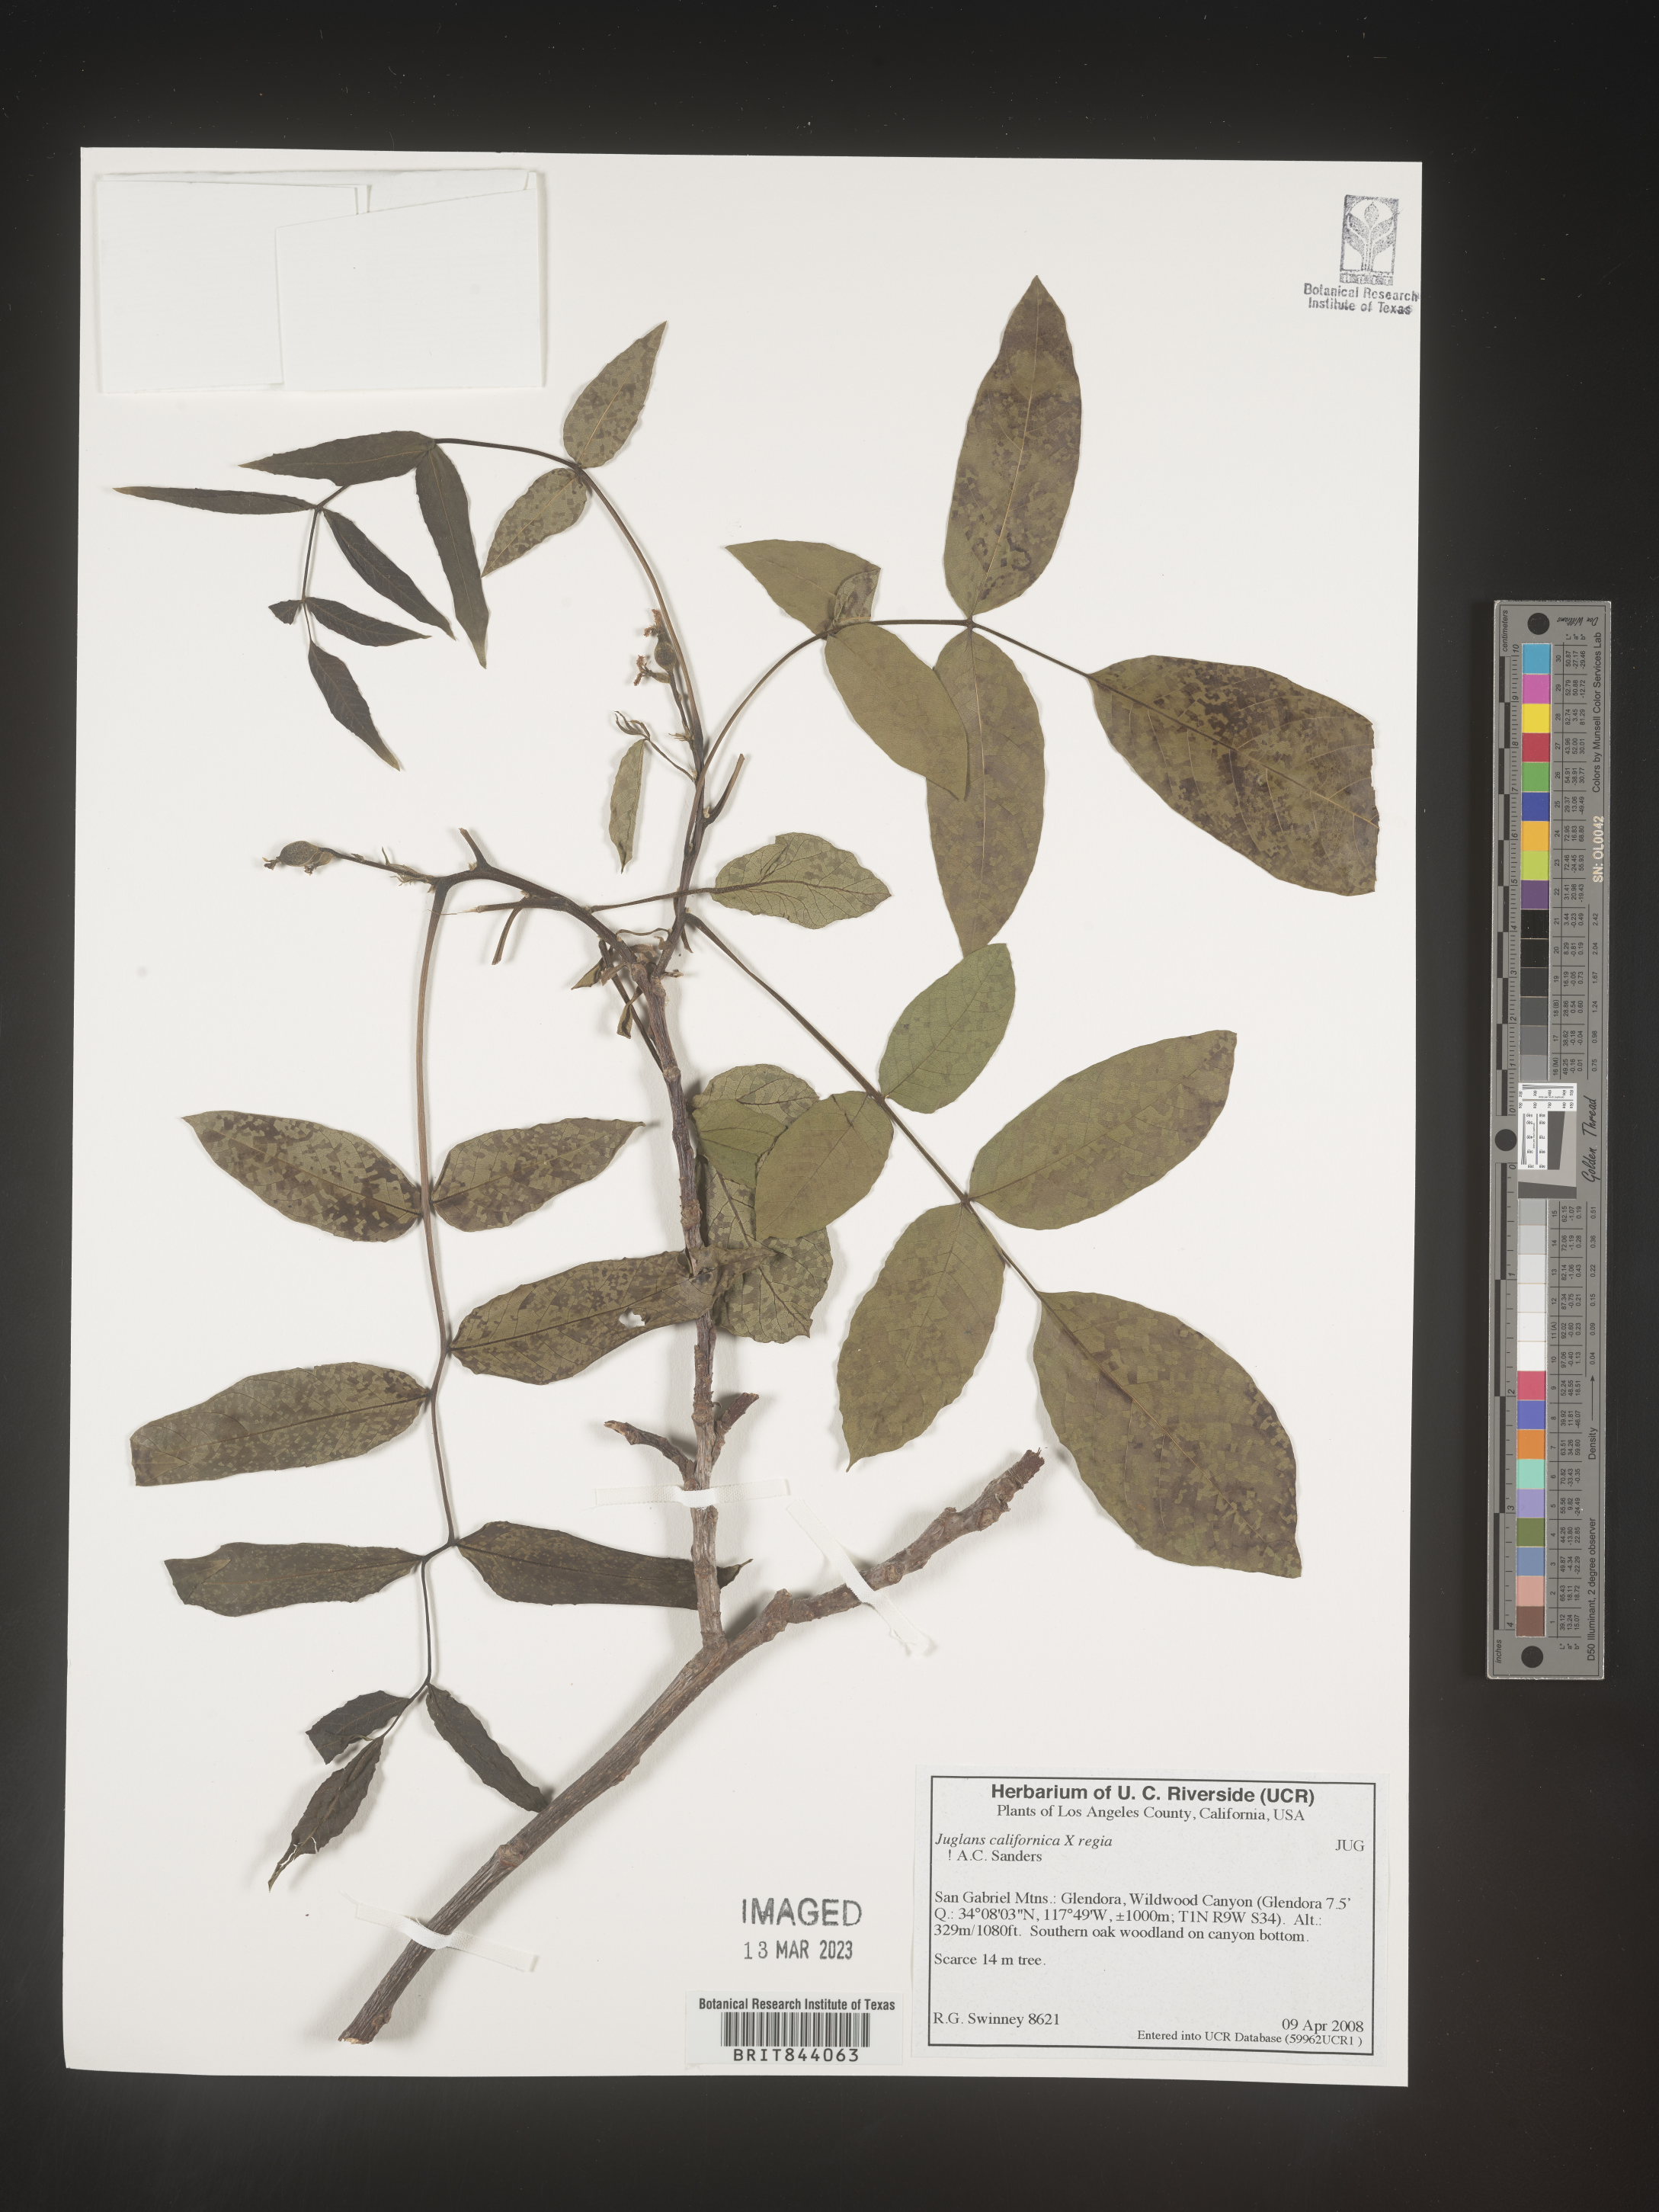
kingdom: Plantae
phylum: Tracheophyta
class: Magnoliopsida
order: Fagales
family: Juglandaceae
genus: Juglans
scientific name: Juglans californica
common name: Southern california black walnut
